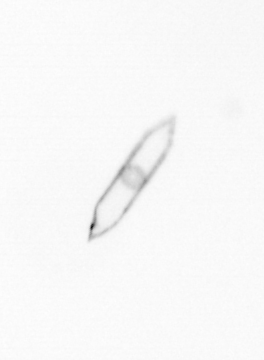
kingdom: Chromista
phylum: Ochrophyta
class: Bacillariophyceae
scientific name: Bacillariophyceae
